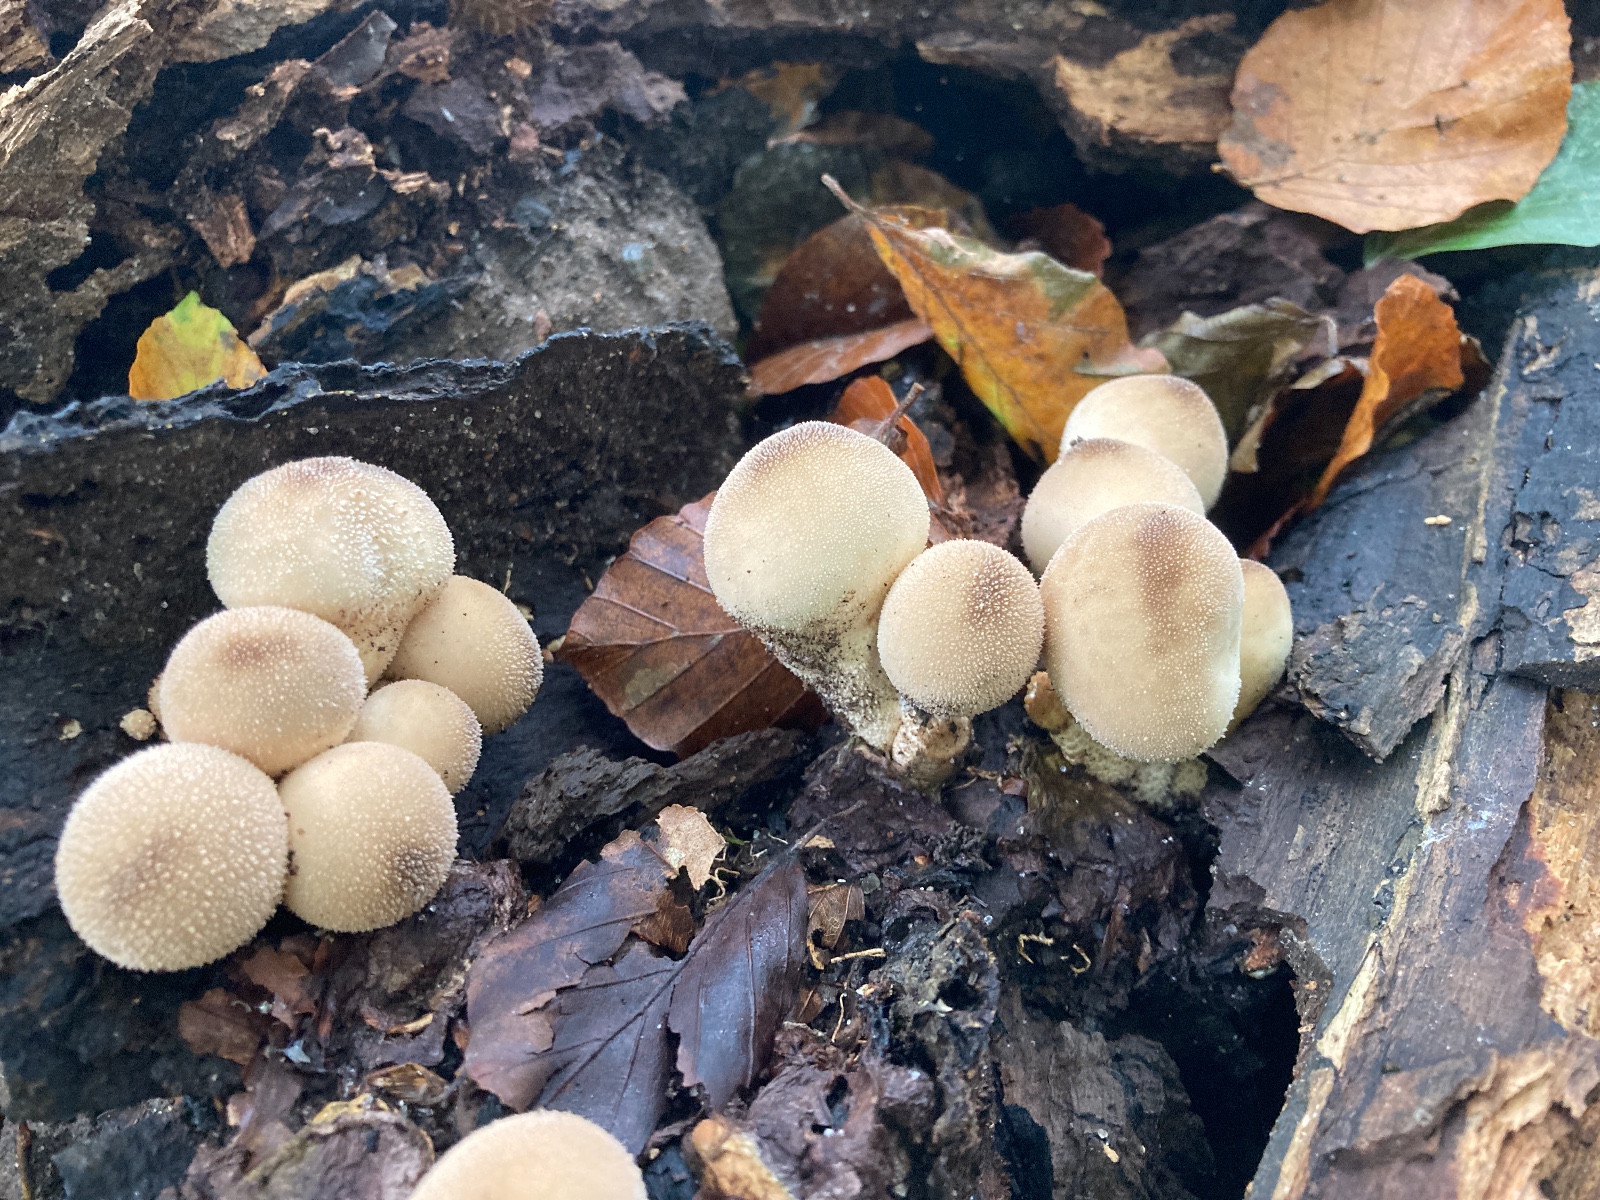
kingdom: Fungi
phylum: Basidiomycota
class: Agaricomycetes
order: Agaricales
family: Lycoperdaceae
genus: Apioperdon
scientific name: Apioperdon pyriforme
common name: pære-støvbold
